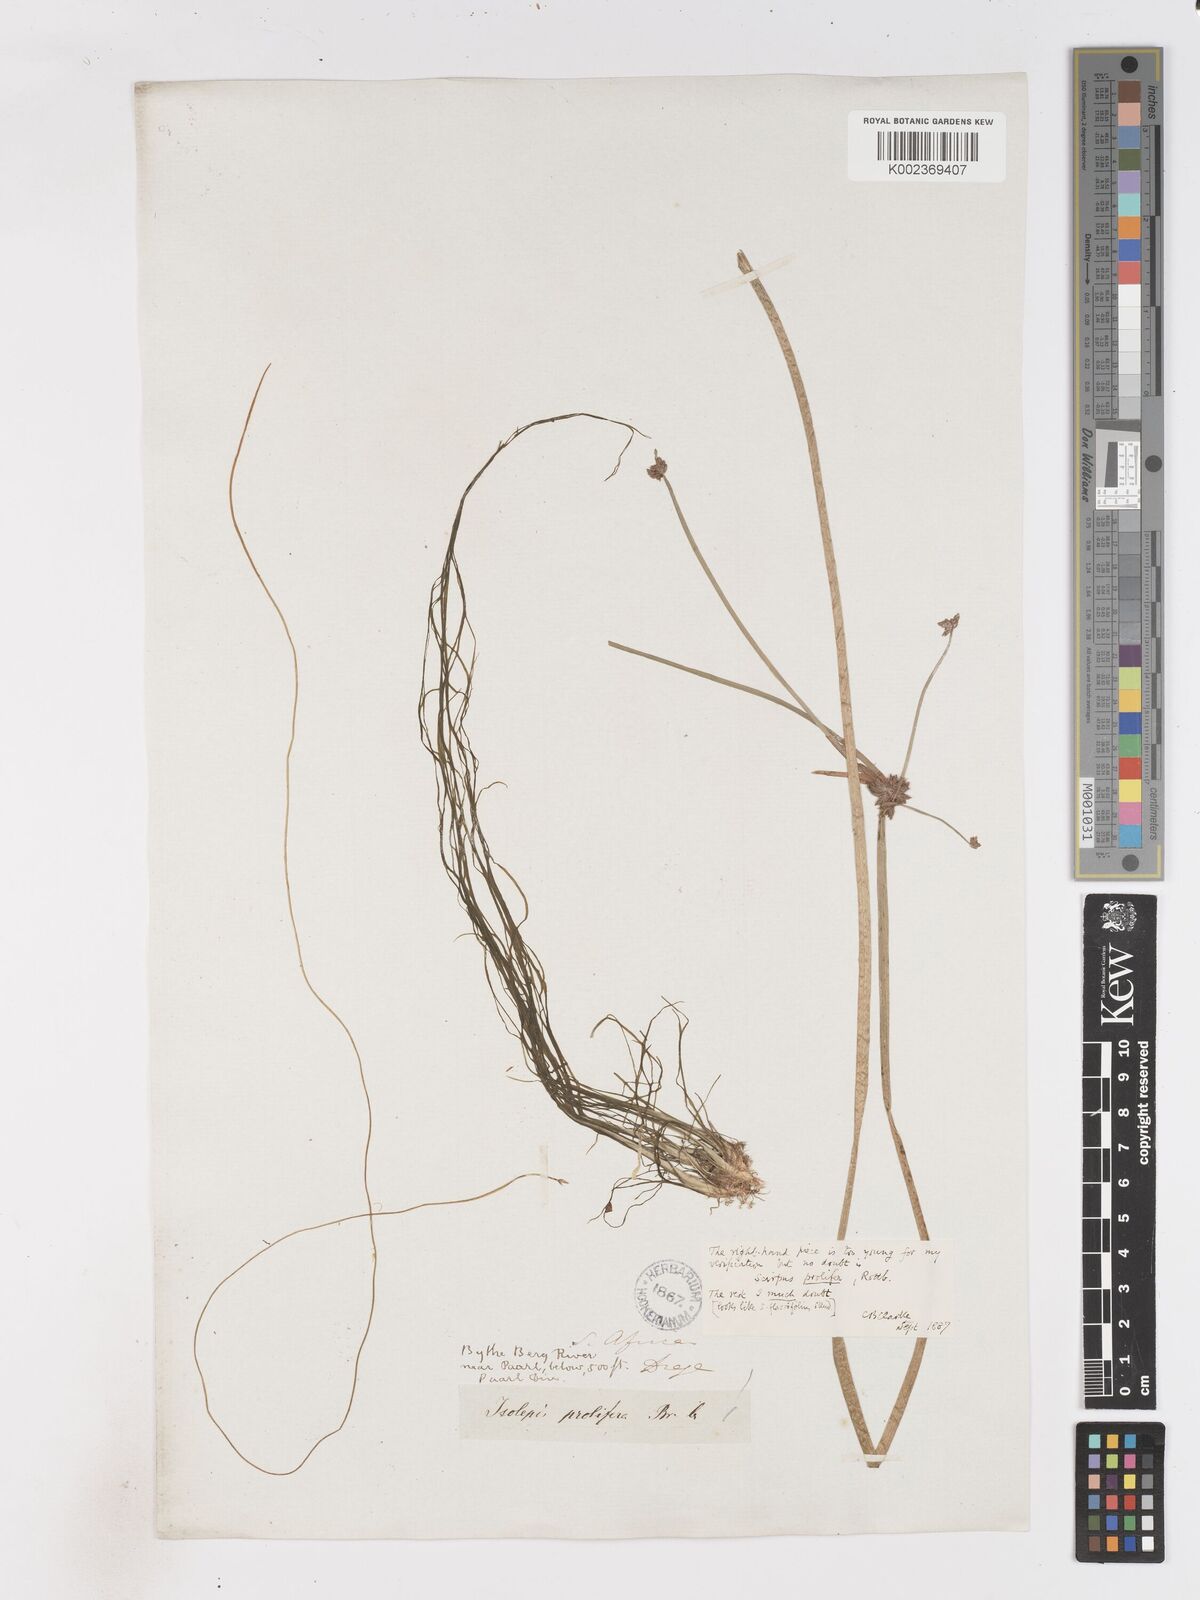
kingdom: Plantae
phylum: Tracheophyta
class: Liliopsida
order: Poales
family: Cyperaceae
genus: Isolepis
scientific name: Isolepis prolifera
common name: Proliferating bulrush
